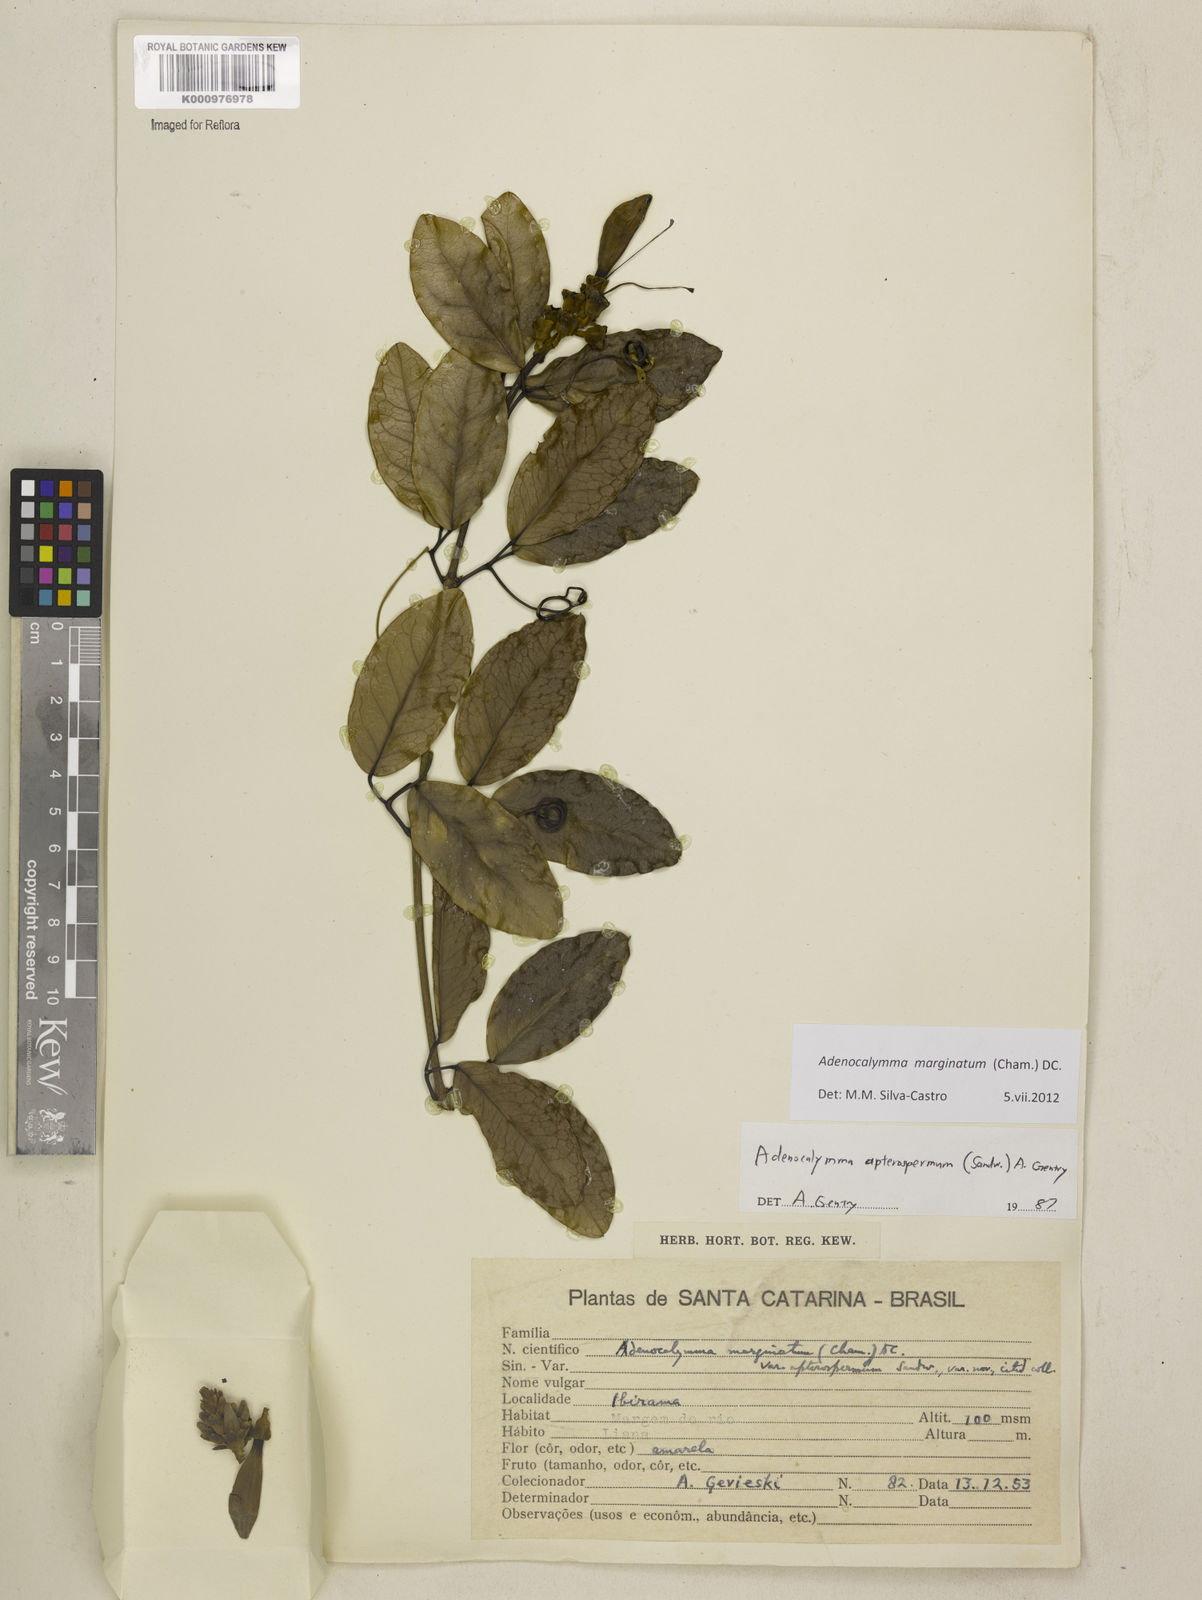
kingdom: Plantae
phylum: Tracheophyta
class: Magnoliopsida
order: Lamiales
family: Bignoniaceae
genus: Adenocalymma
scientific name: Adenocalymma marginatum
